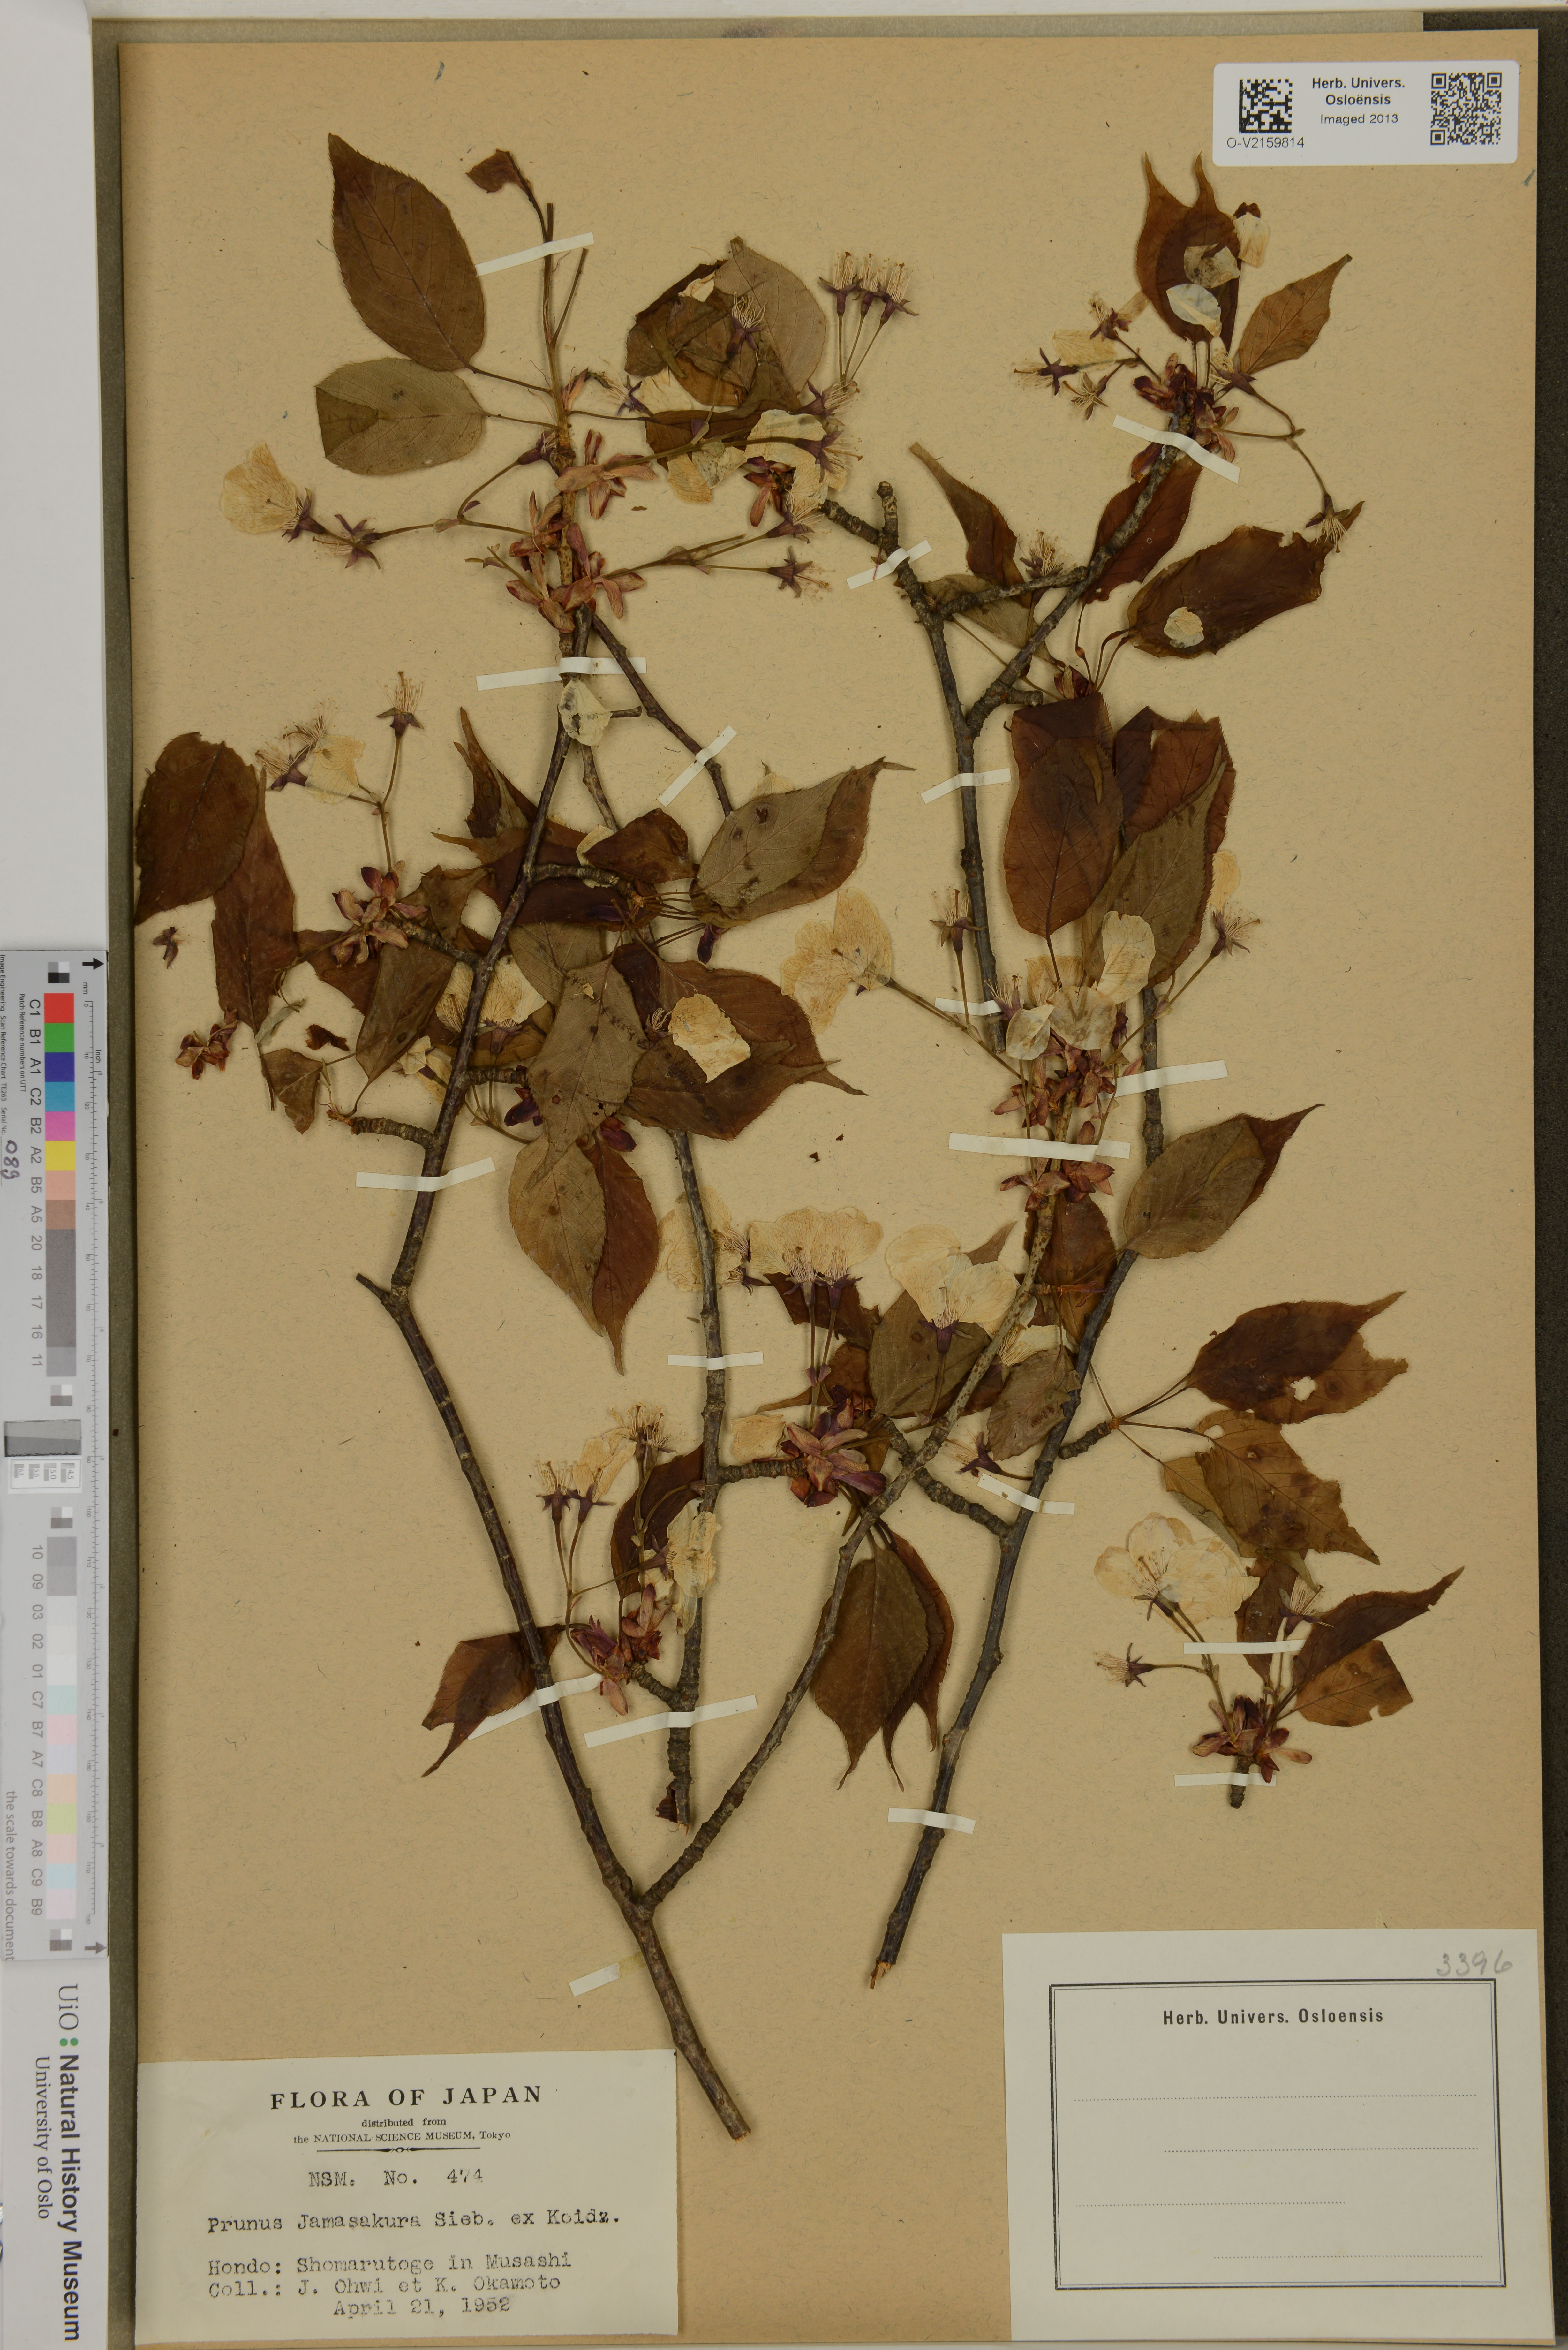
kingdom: Plantae
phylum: Tracheophyta
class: Magnoliopsida
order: Rosales
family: Rosaceae
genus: Prunus
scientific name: Prunus jamasakura
